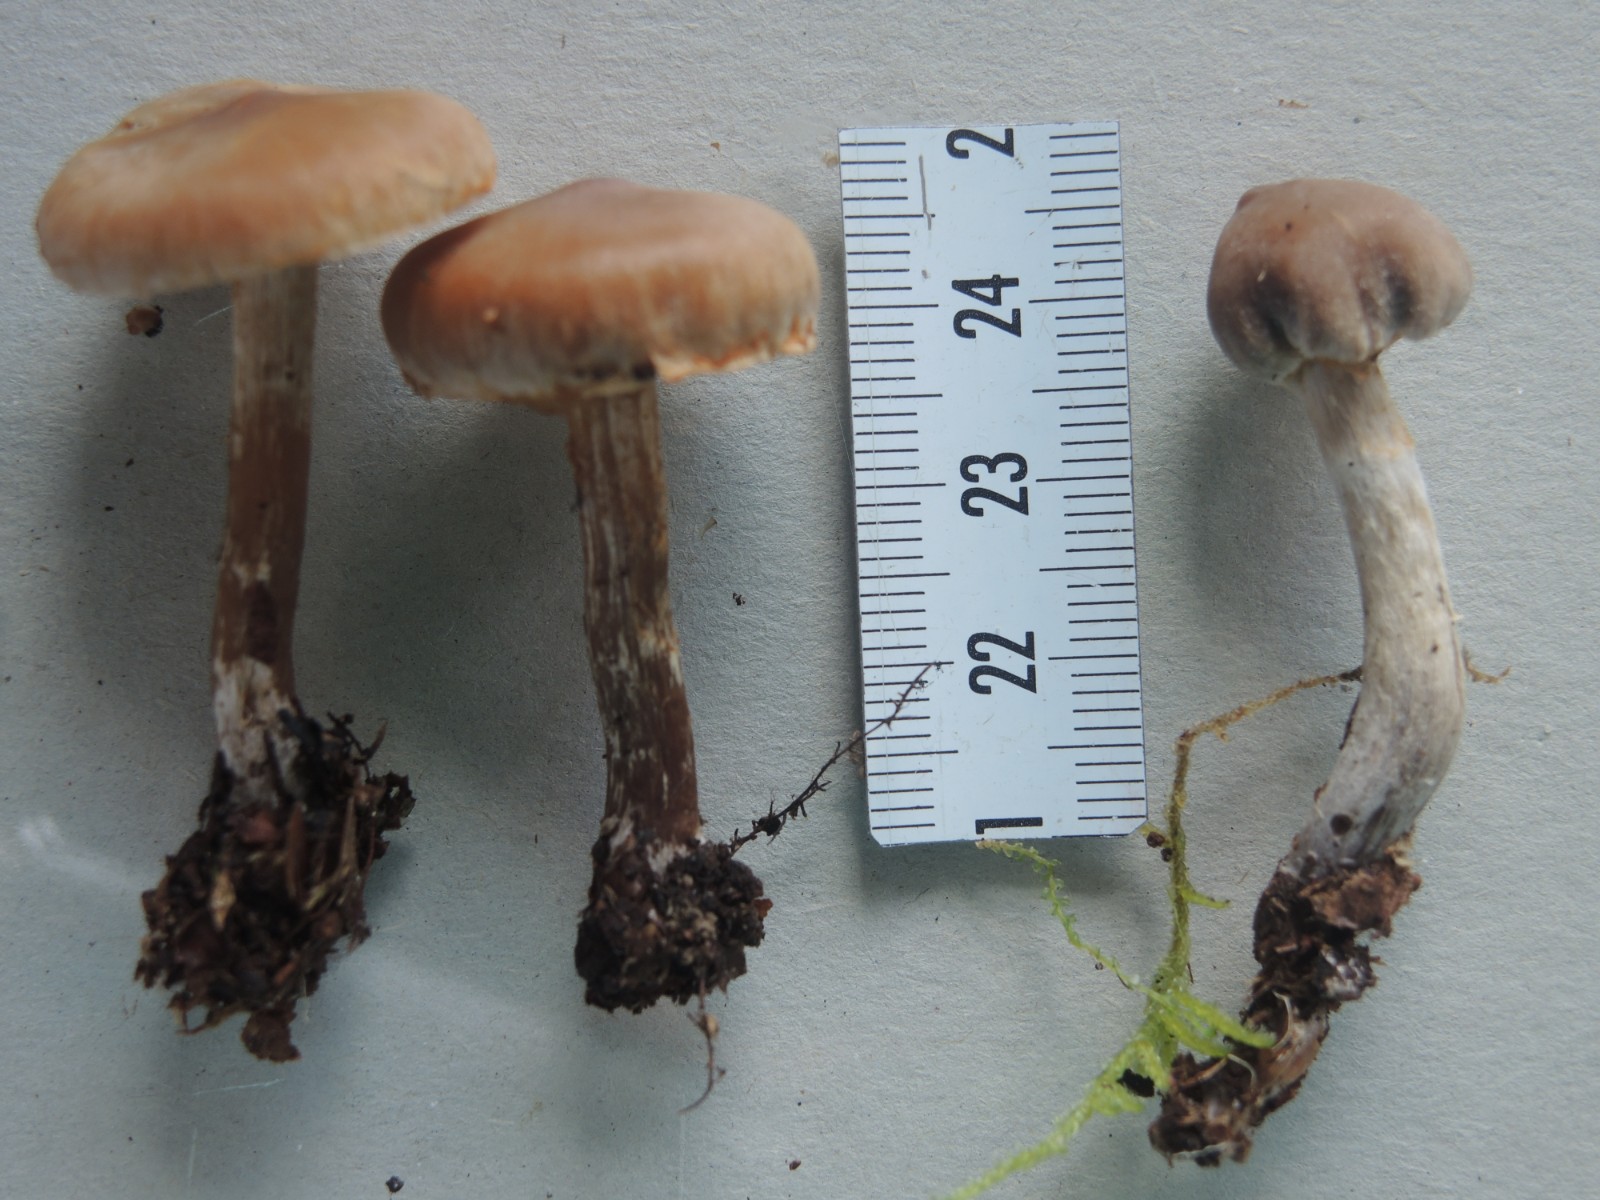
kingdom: Fungi
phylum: Basidiomycota
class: Agaricomycetes
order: Agaricales
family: Cortinariaceae
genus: Cortinarius
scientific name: Cortinarius
